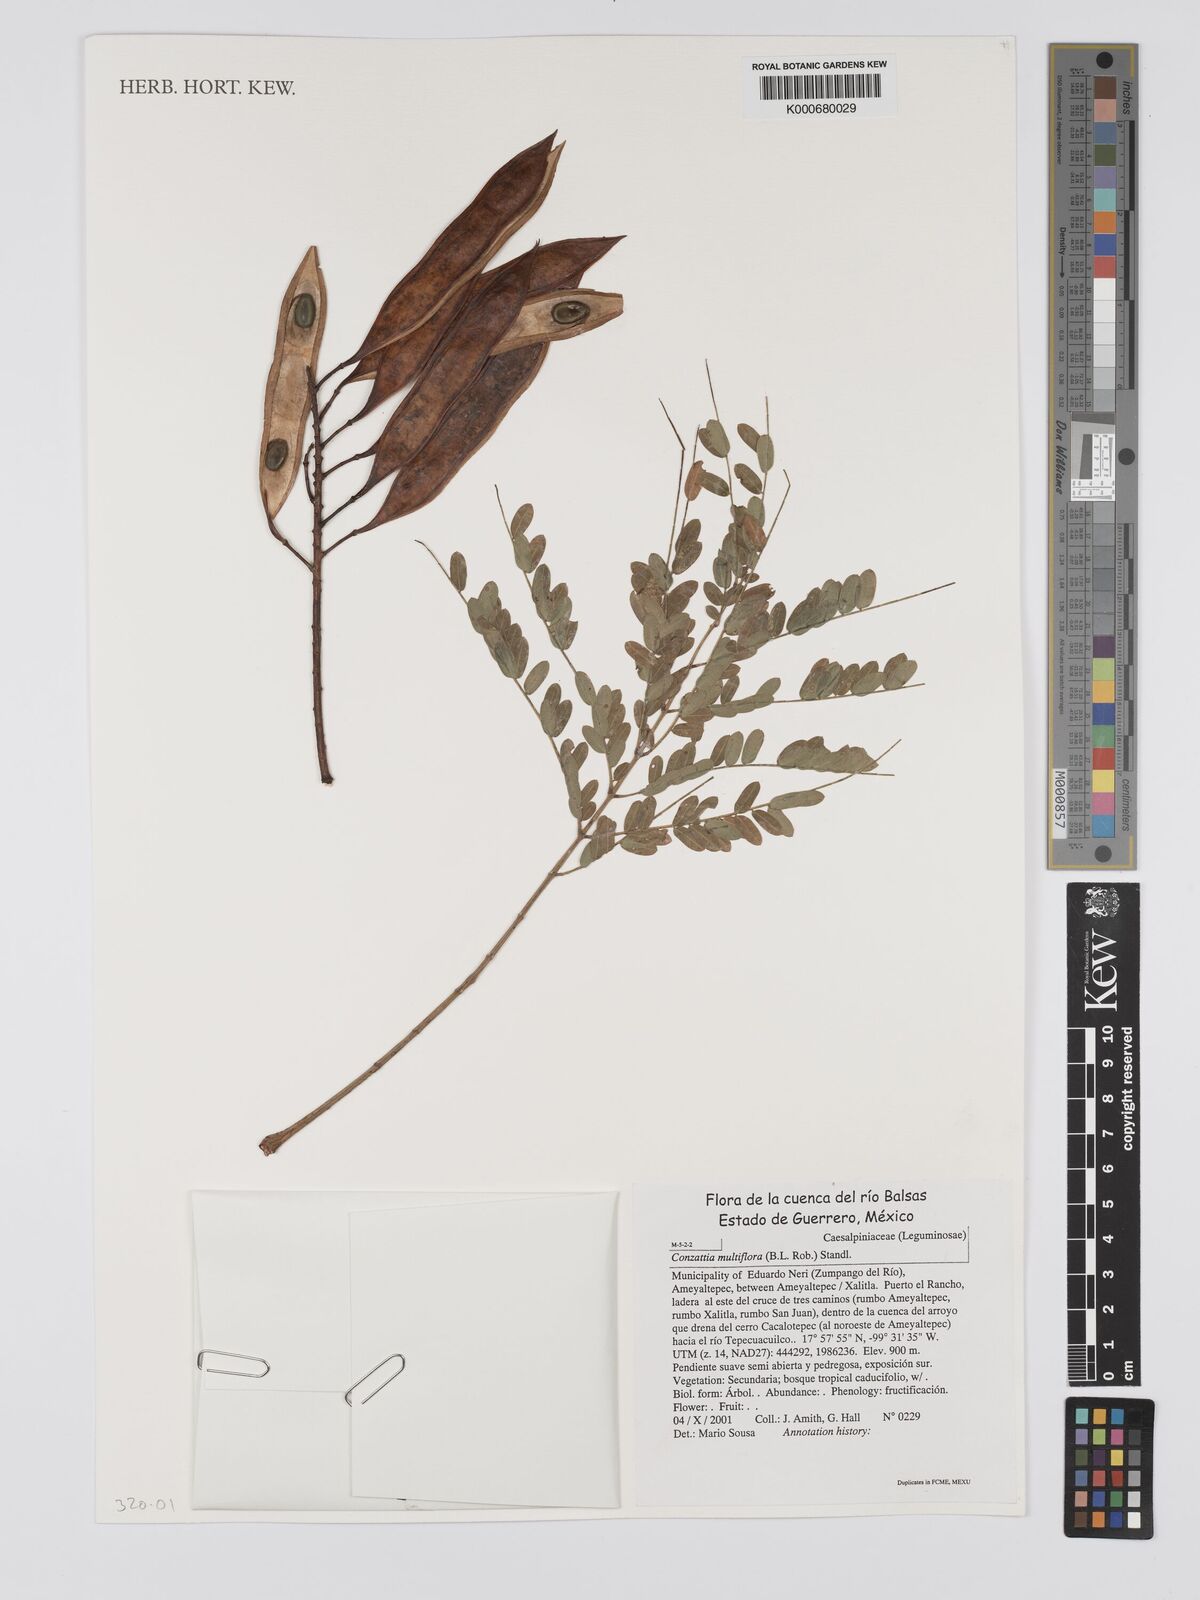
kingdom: Plantae
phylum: Tracheophyta
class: Magnoliopsida
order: Fabales
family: Fabaceae
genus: Conzattia
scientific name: Conzattia multiflora
